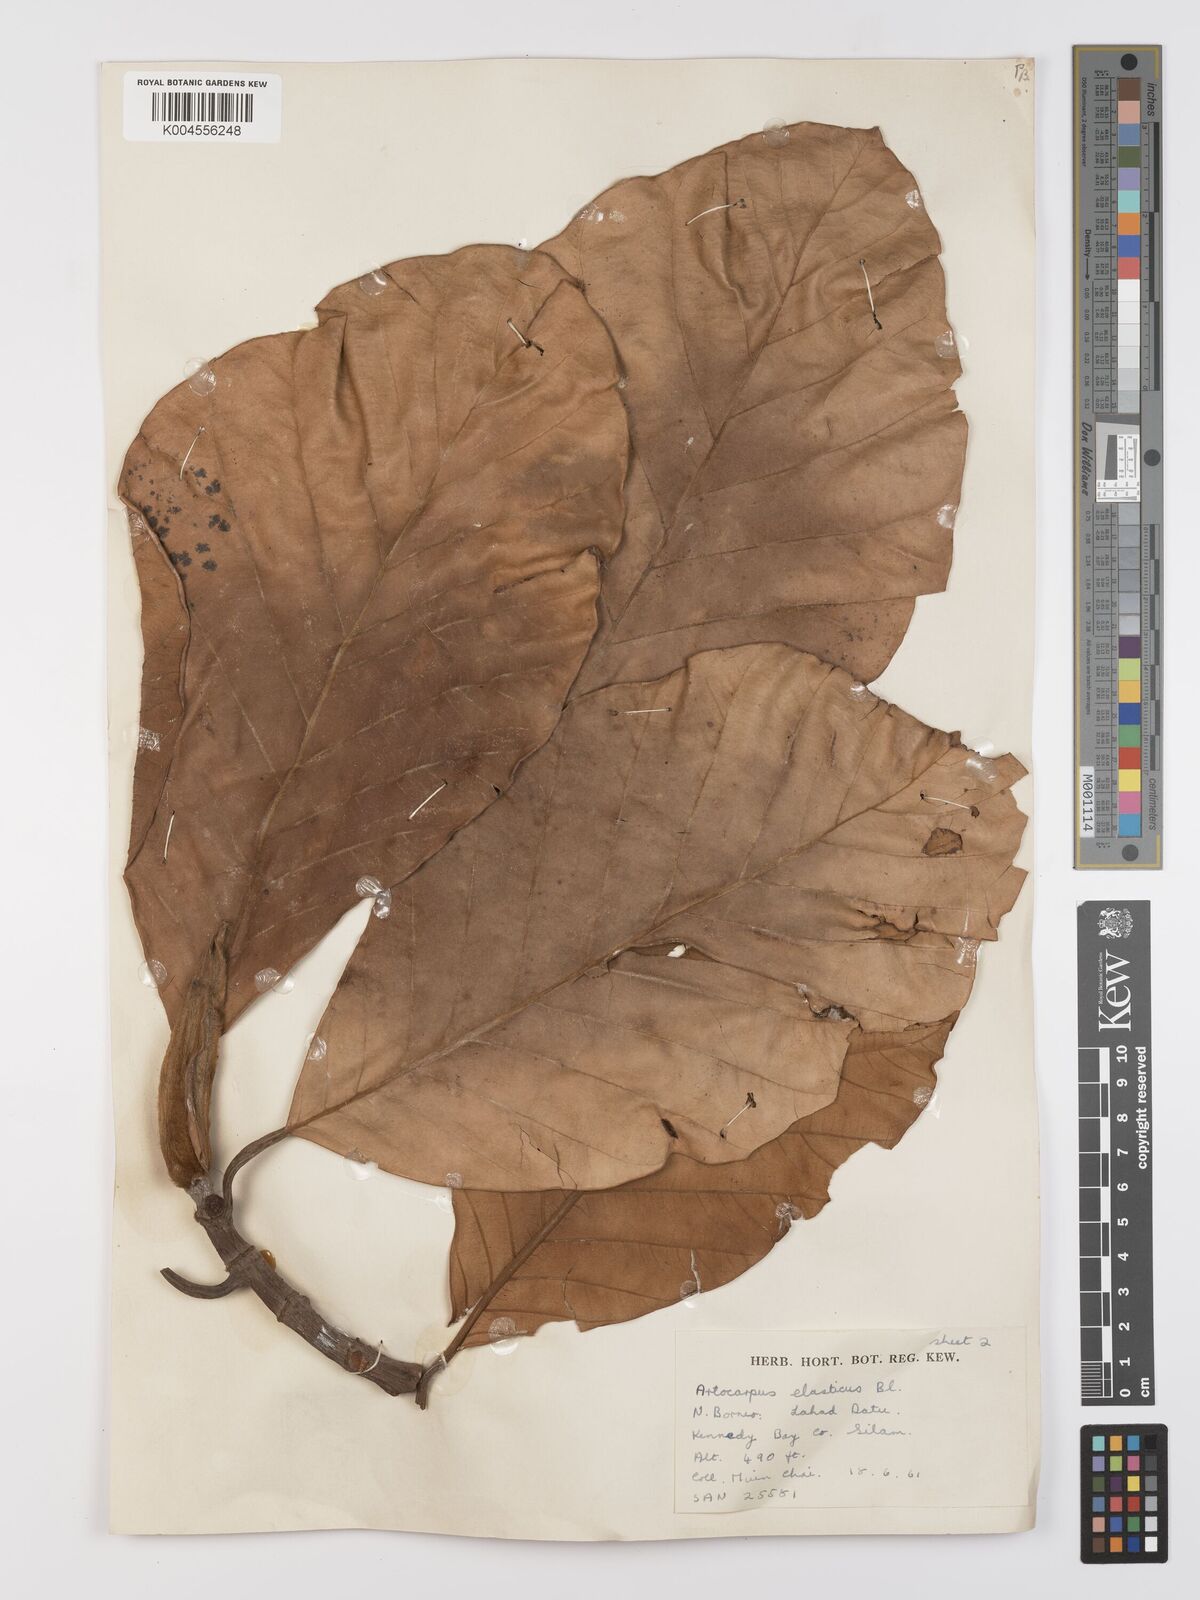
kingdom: Plantae
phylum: Tracheophyta
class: Magnoliopsida
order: Rosales
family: Moraceae
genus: Artocarpus
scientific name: Artocarpus elasticus
